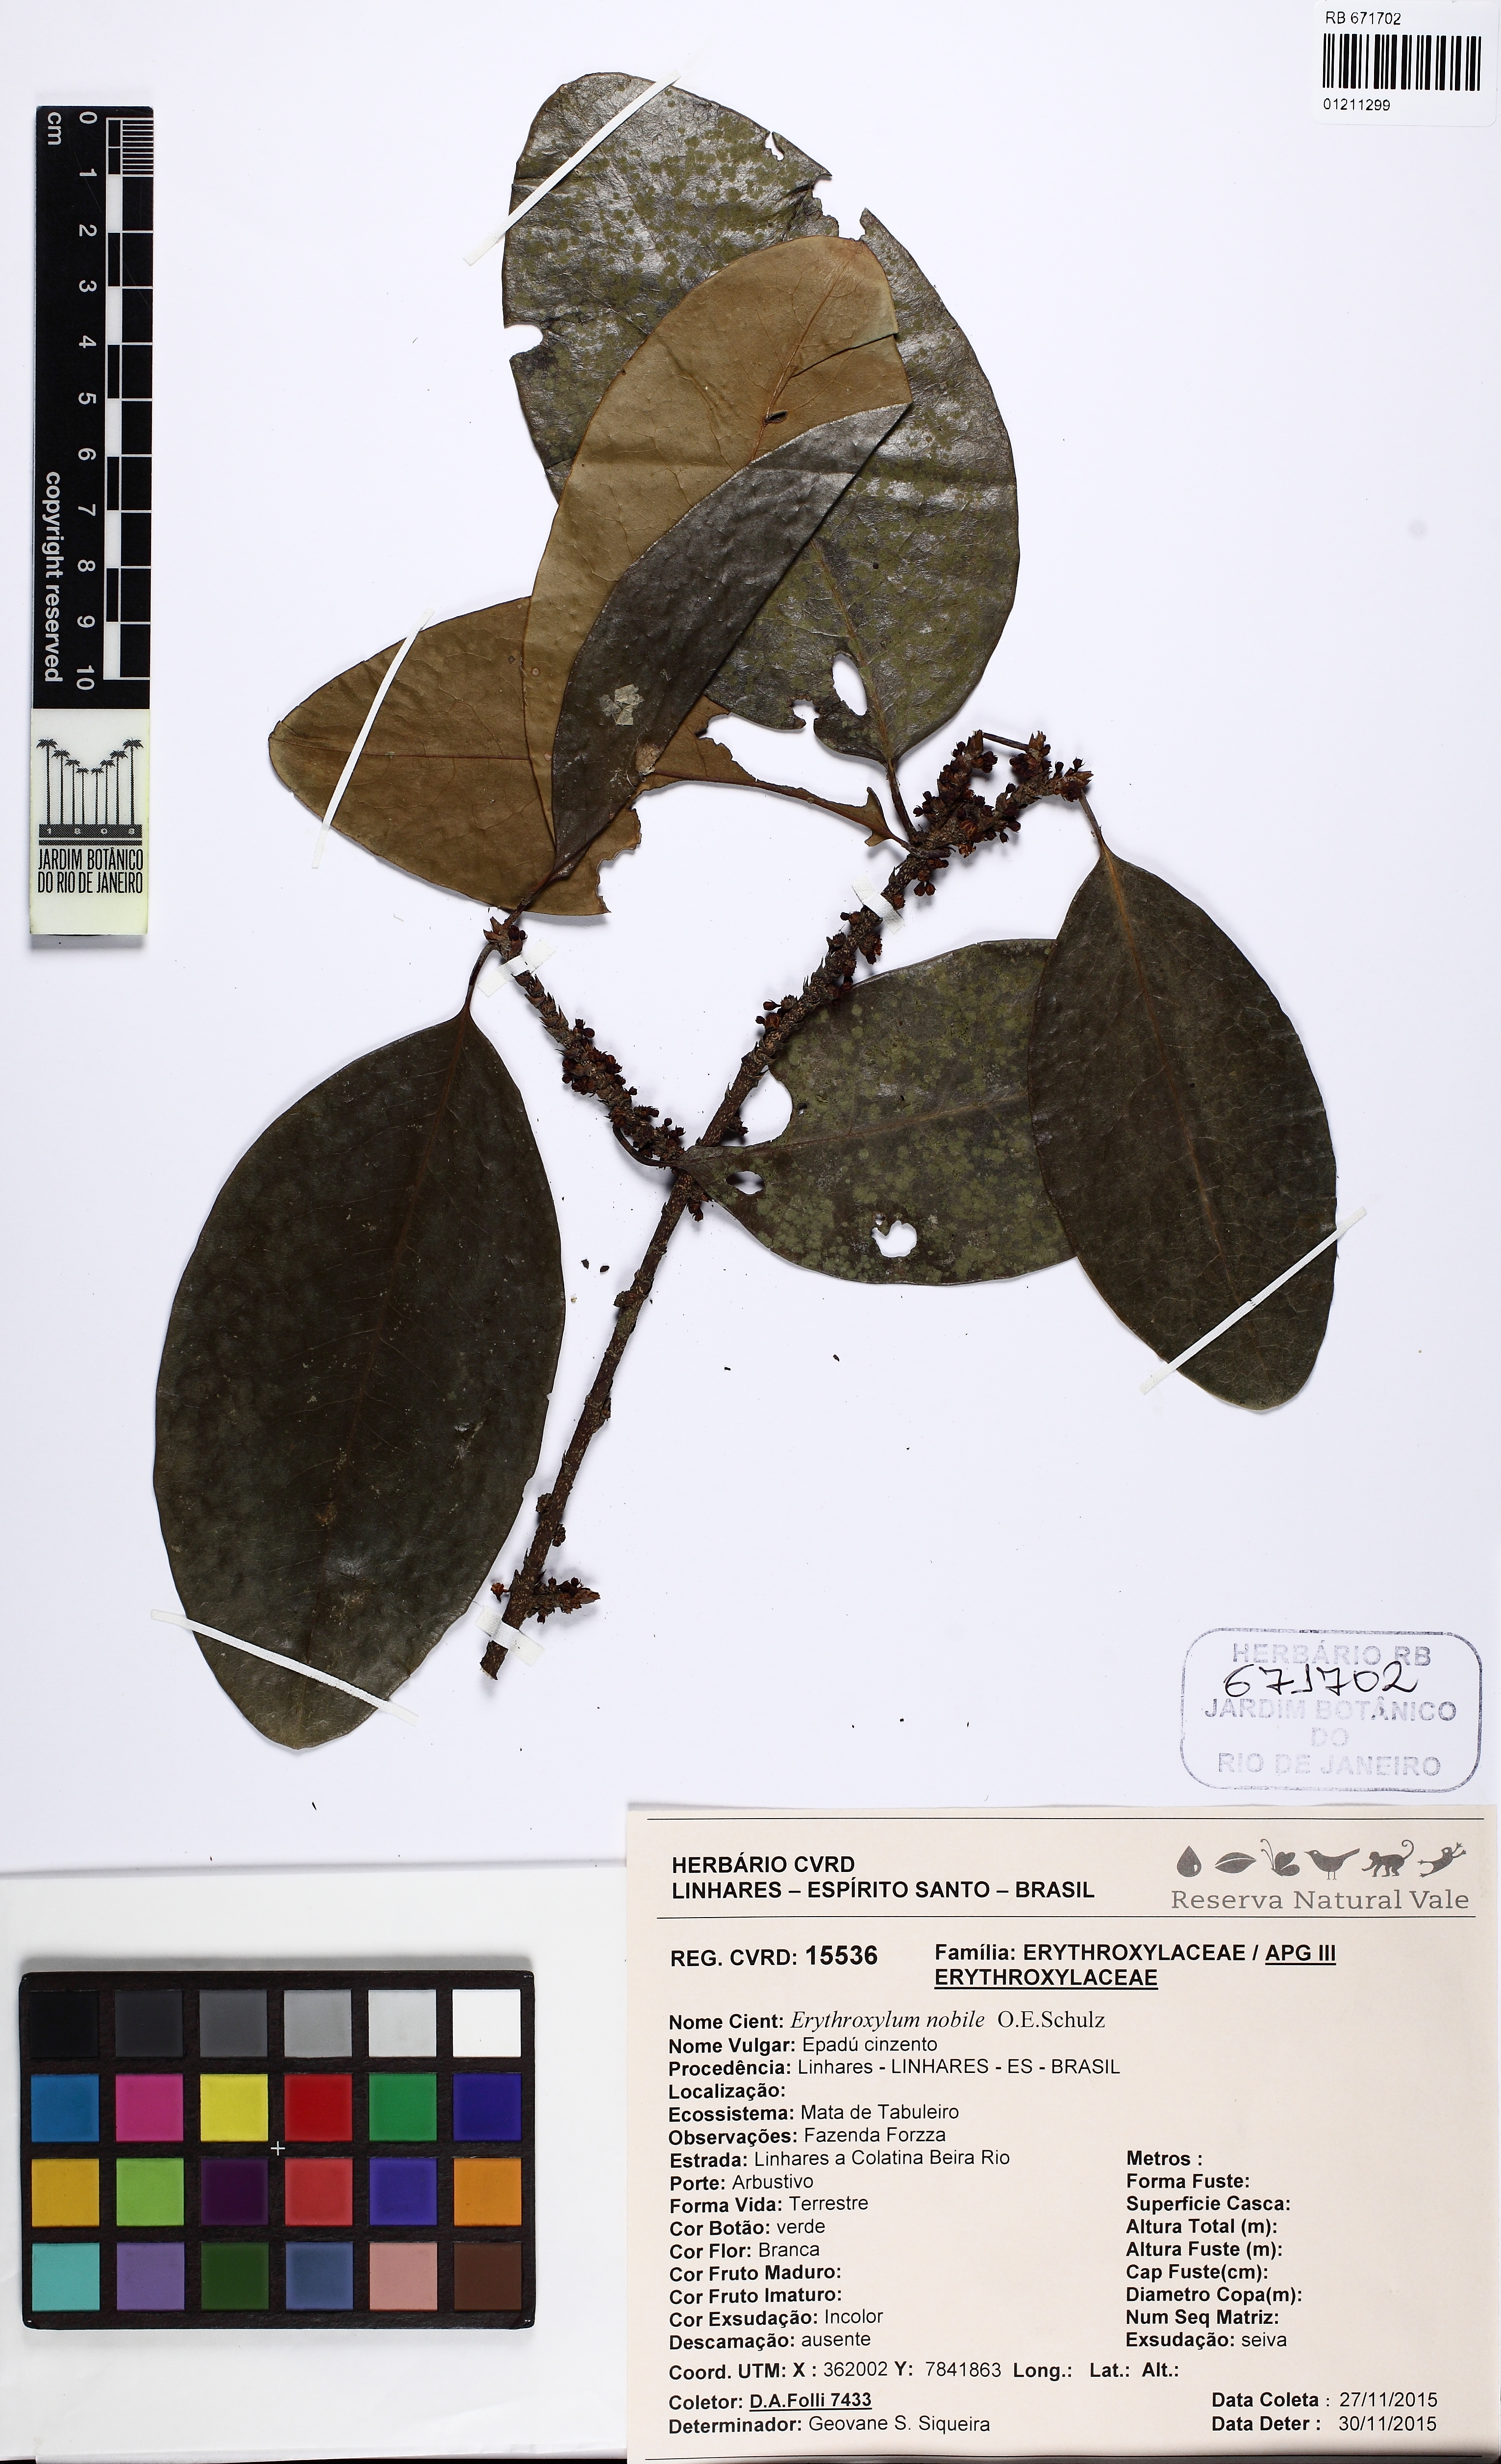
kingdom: Plantae
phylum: Tracheophyta
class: Magnoliopsida
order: Malpighiales
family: Erythroxylaceae
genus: Erythroxylum
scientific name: Erythroxylum nobile
